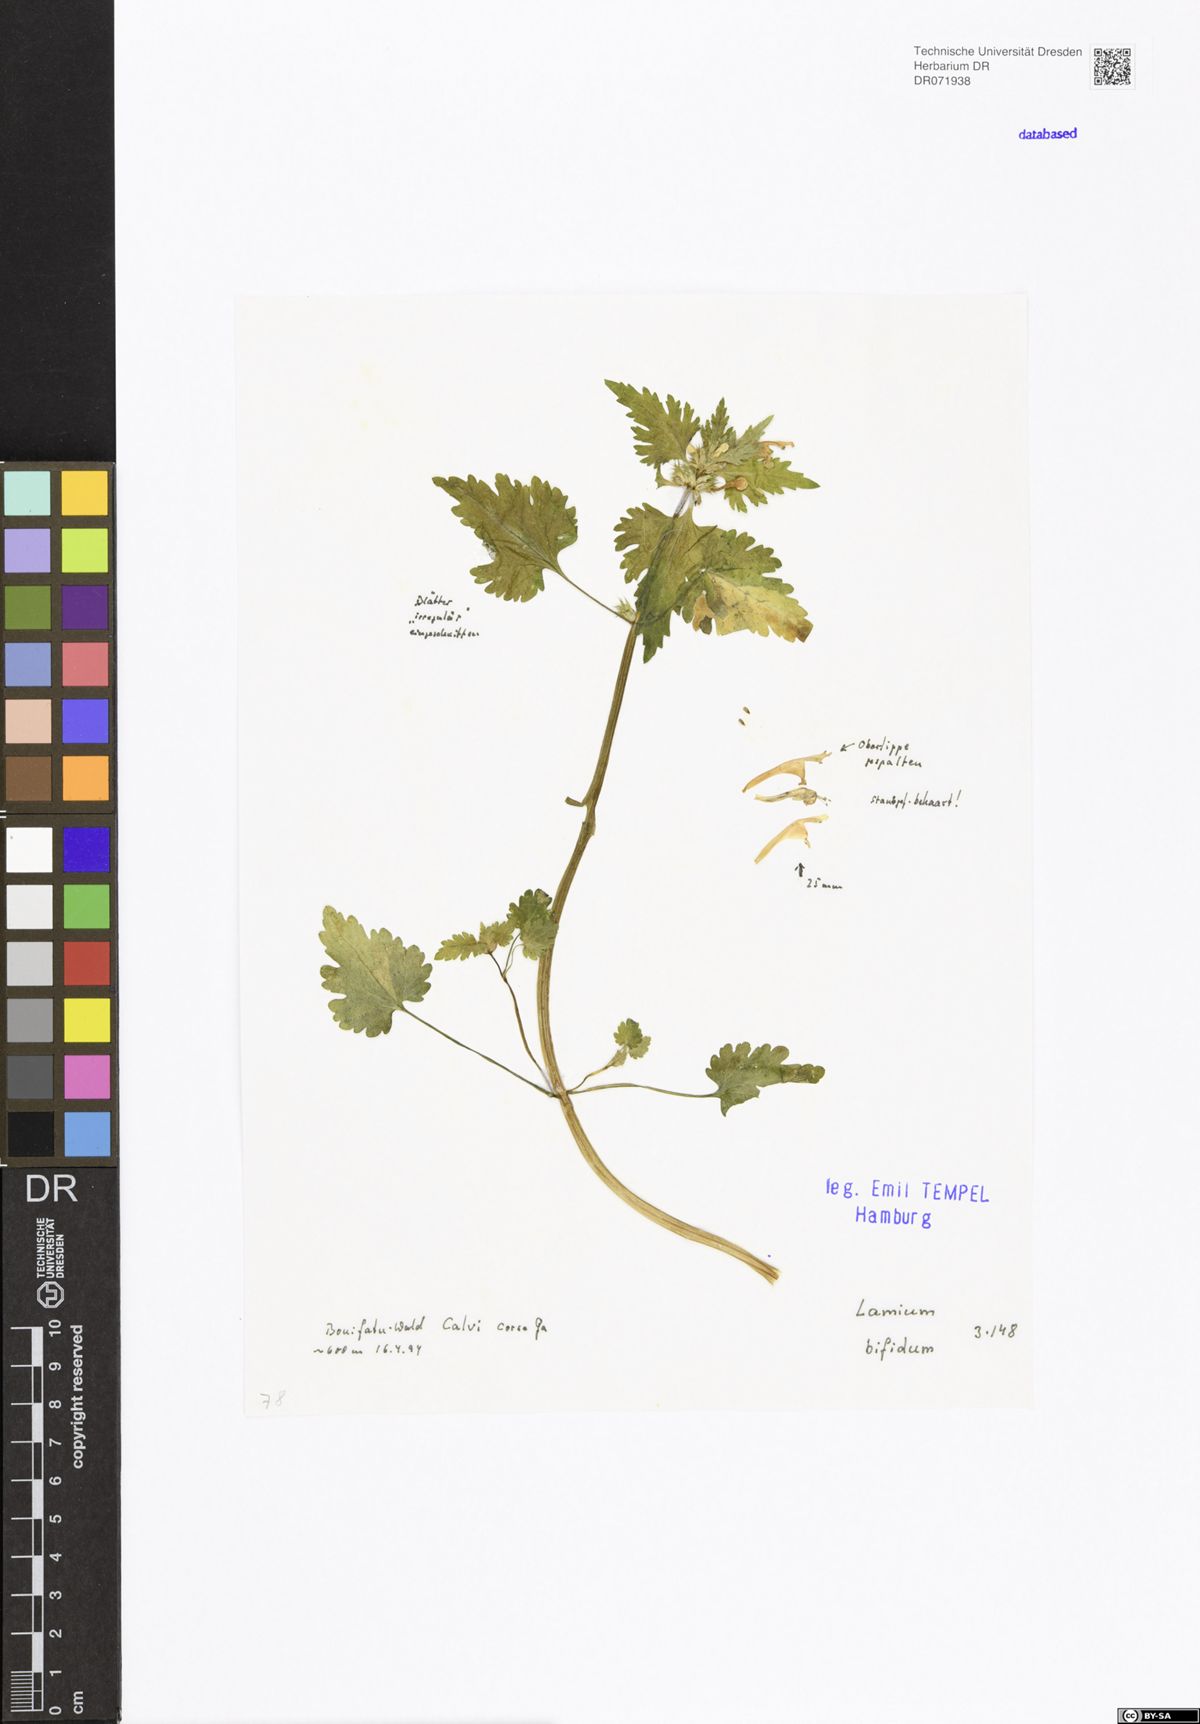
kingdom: Plantae
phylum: Tracheophyta
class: Magnoliopsida
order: Lamiales
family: Lamiaceae
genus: Lamium
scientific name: Lamium bifidum
